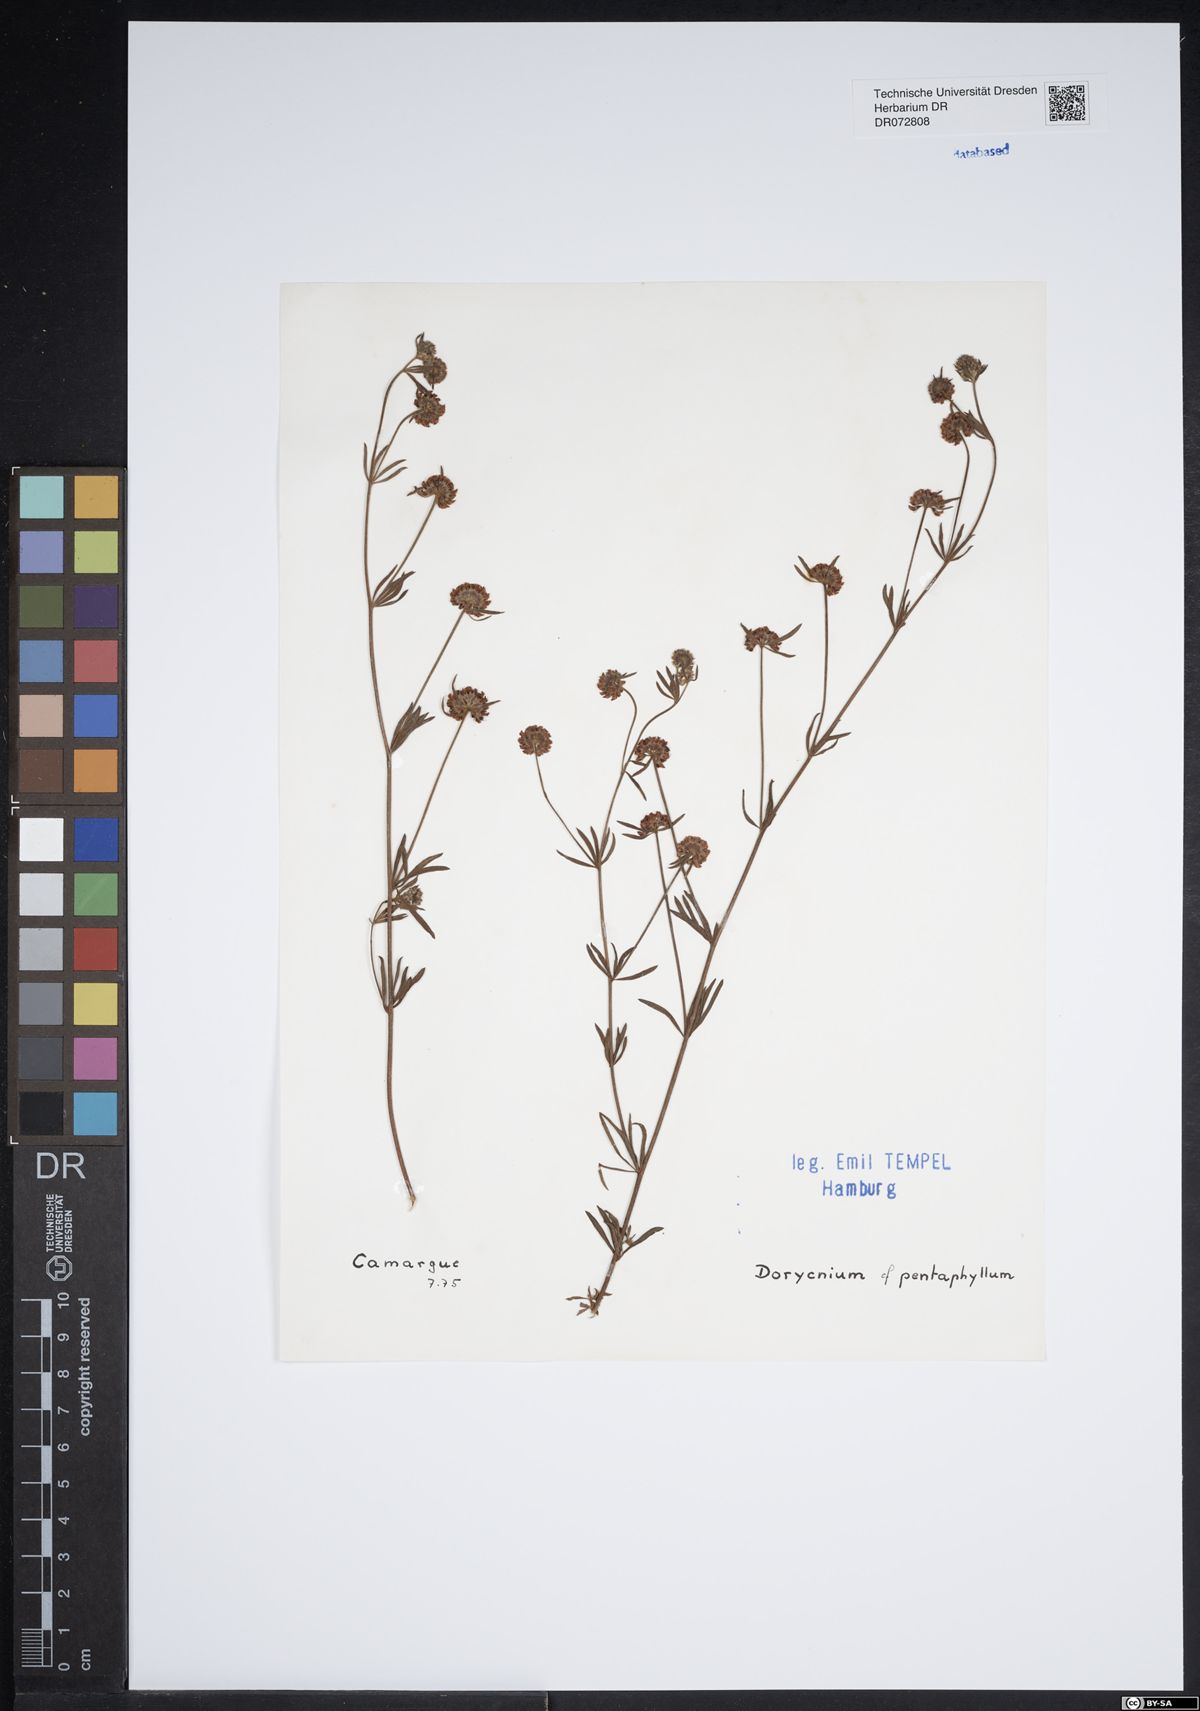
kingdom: Plantae
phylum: Tracheophyta
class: Magnoliopsida
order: Fabales
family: Fabaceae
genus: Lotus
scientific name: Lotus dorycnium
